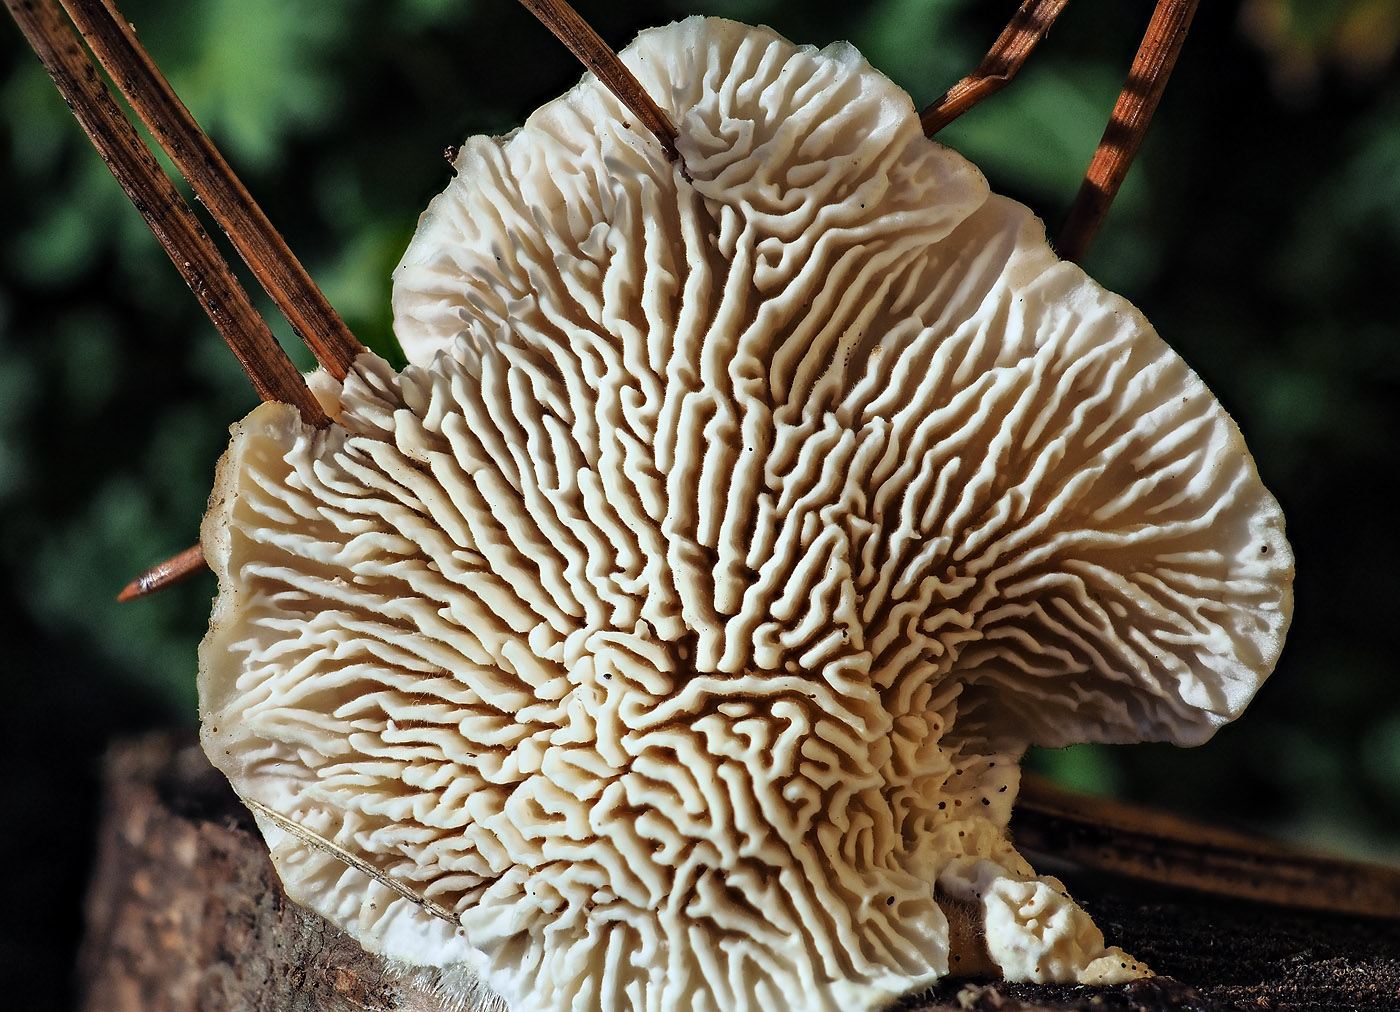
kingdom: Fungi
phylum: Basidiomycota
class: Agaricomycetes
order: Polyporales
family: Polyporaceae
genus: Lenzites
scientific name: Lenzites betulinus
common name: birke-læderporesvamp
